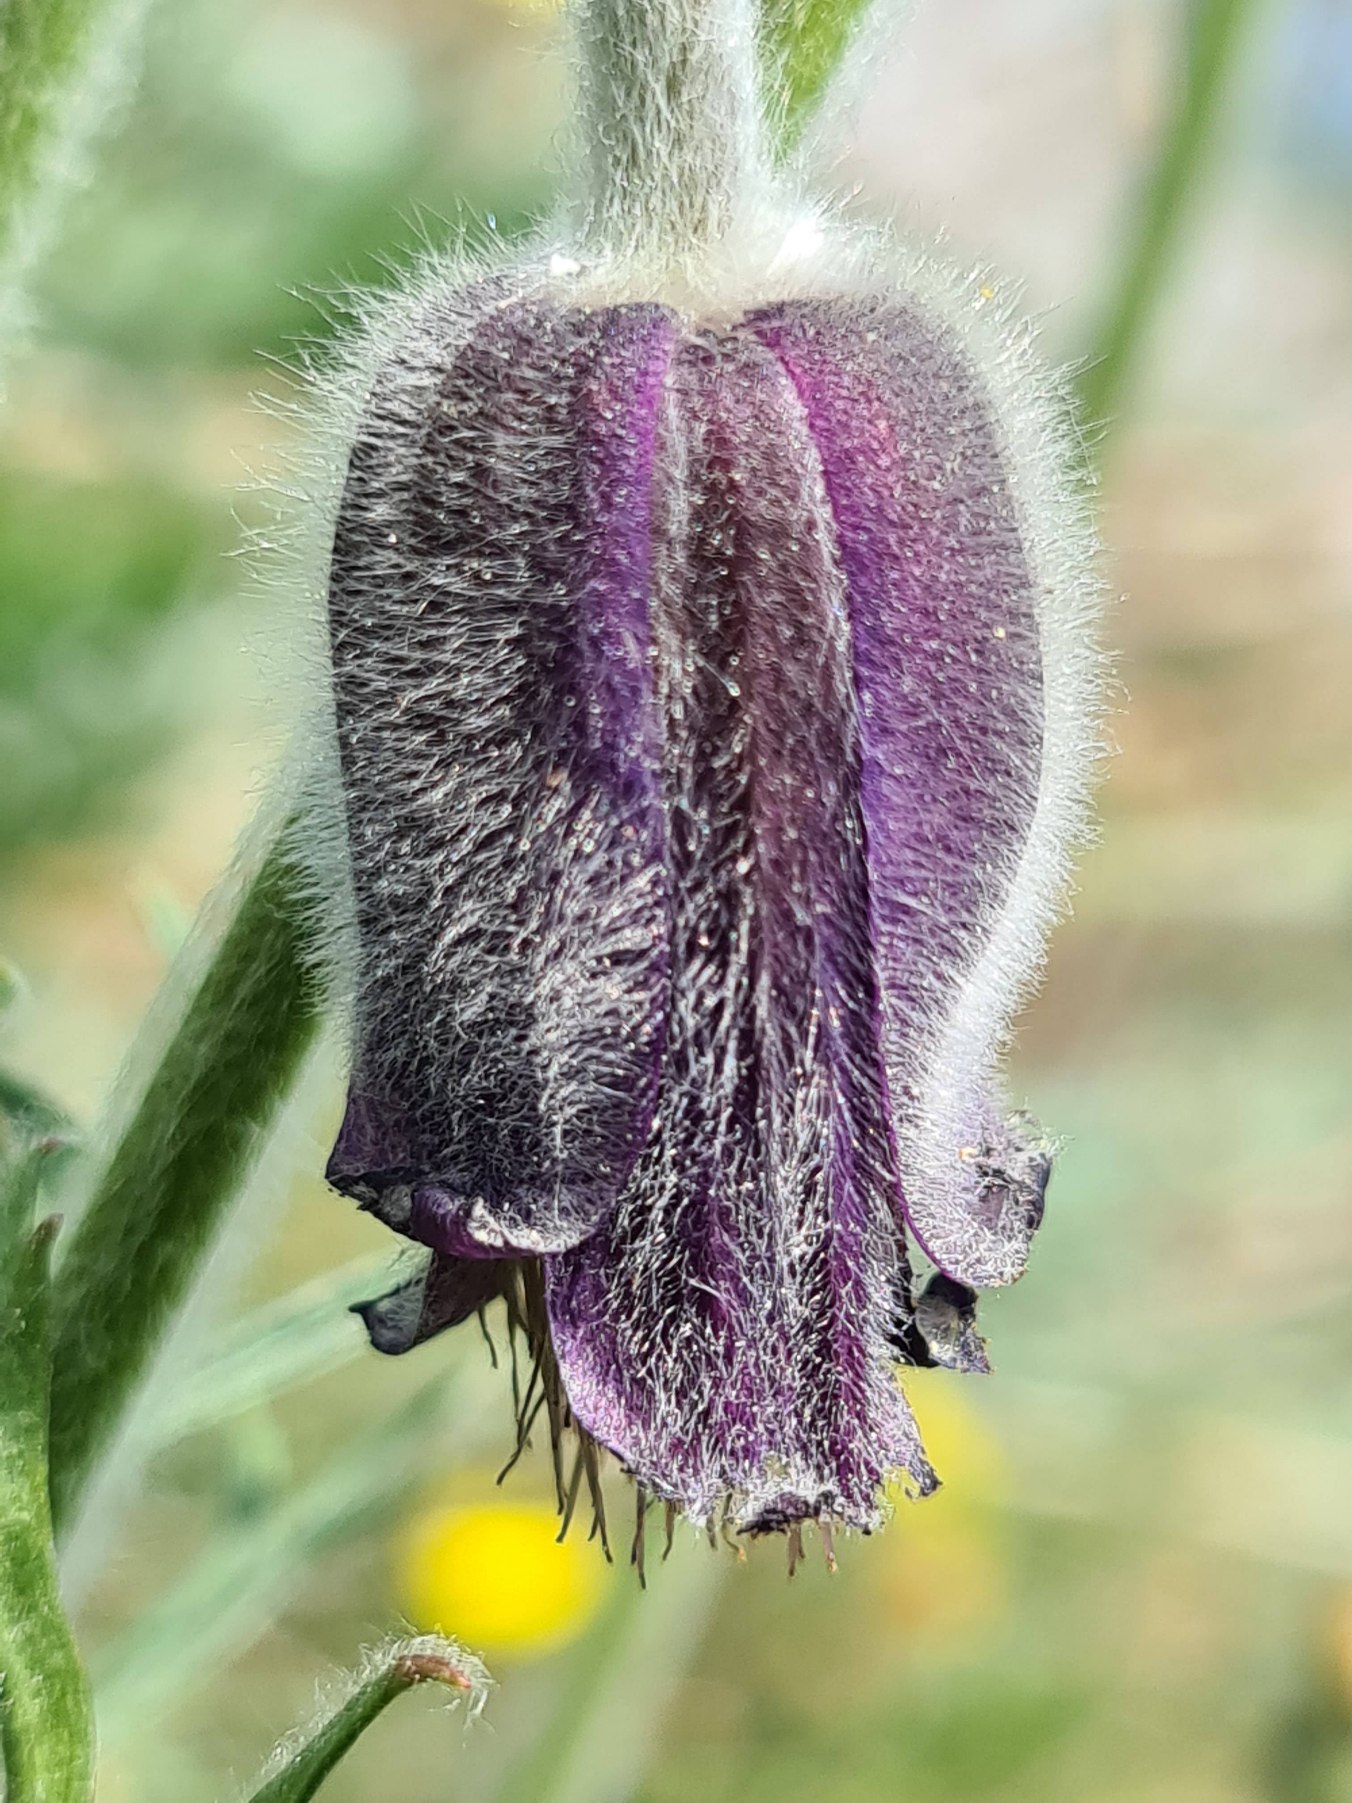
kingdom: Plantae
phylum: Tracheophyta
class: Magnoliopsida
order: Ranunculales
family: Ranunculaceae
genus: Pulsatilla
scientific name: Pulsatilla pratensis
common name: Nikkende kobjælde
